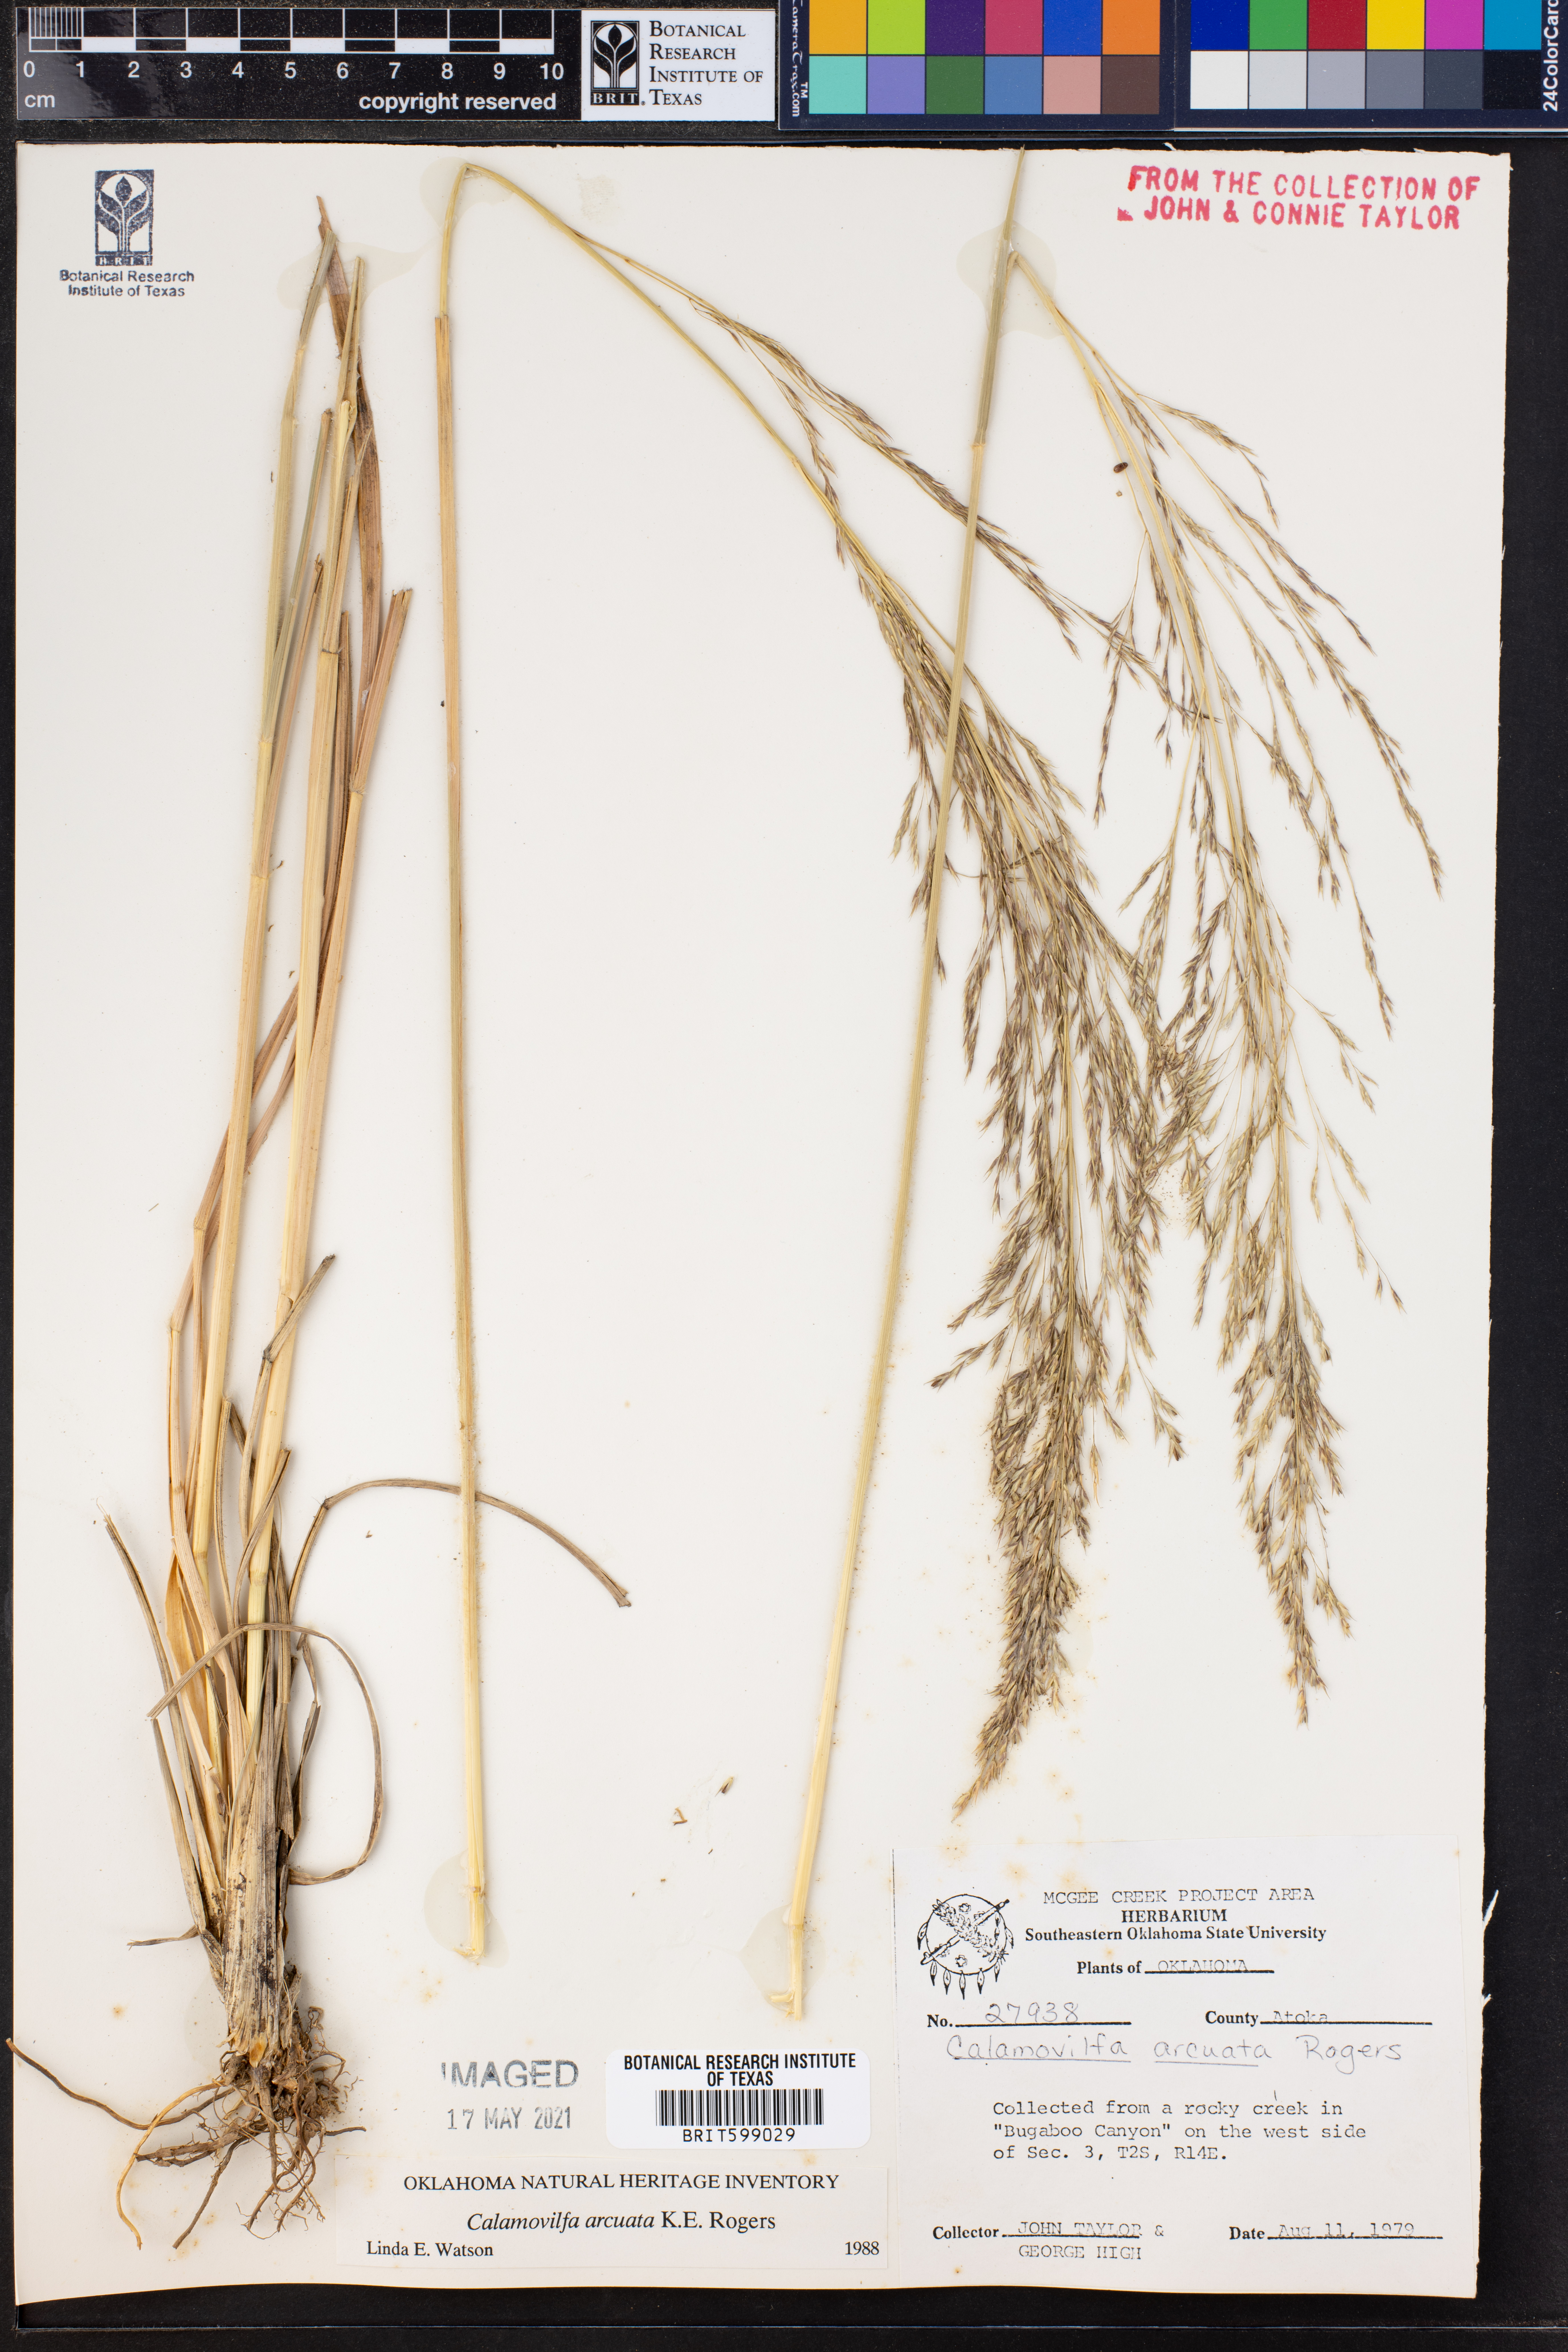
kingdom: Plantae
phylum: Tracheophyta
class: Liliopsida
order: Poales
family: Poaceae
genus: Sporobolus
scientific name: Sporobolus arcuatus
